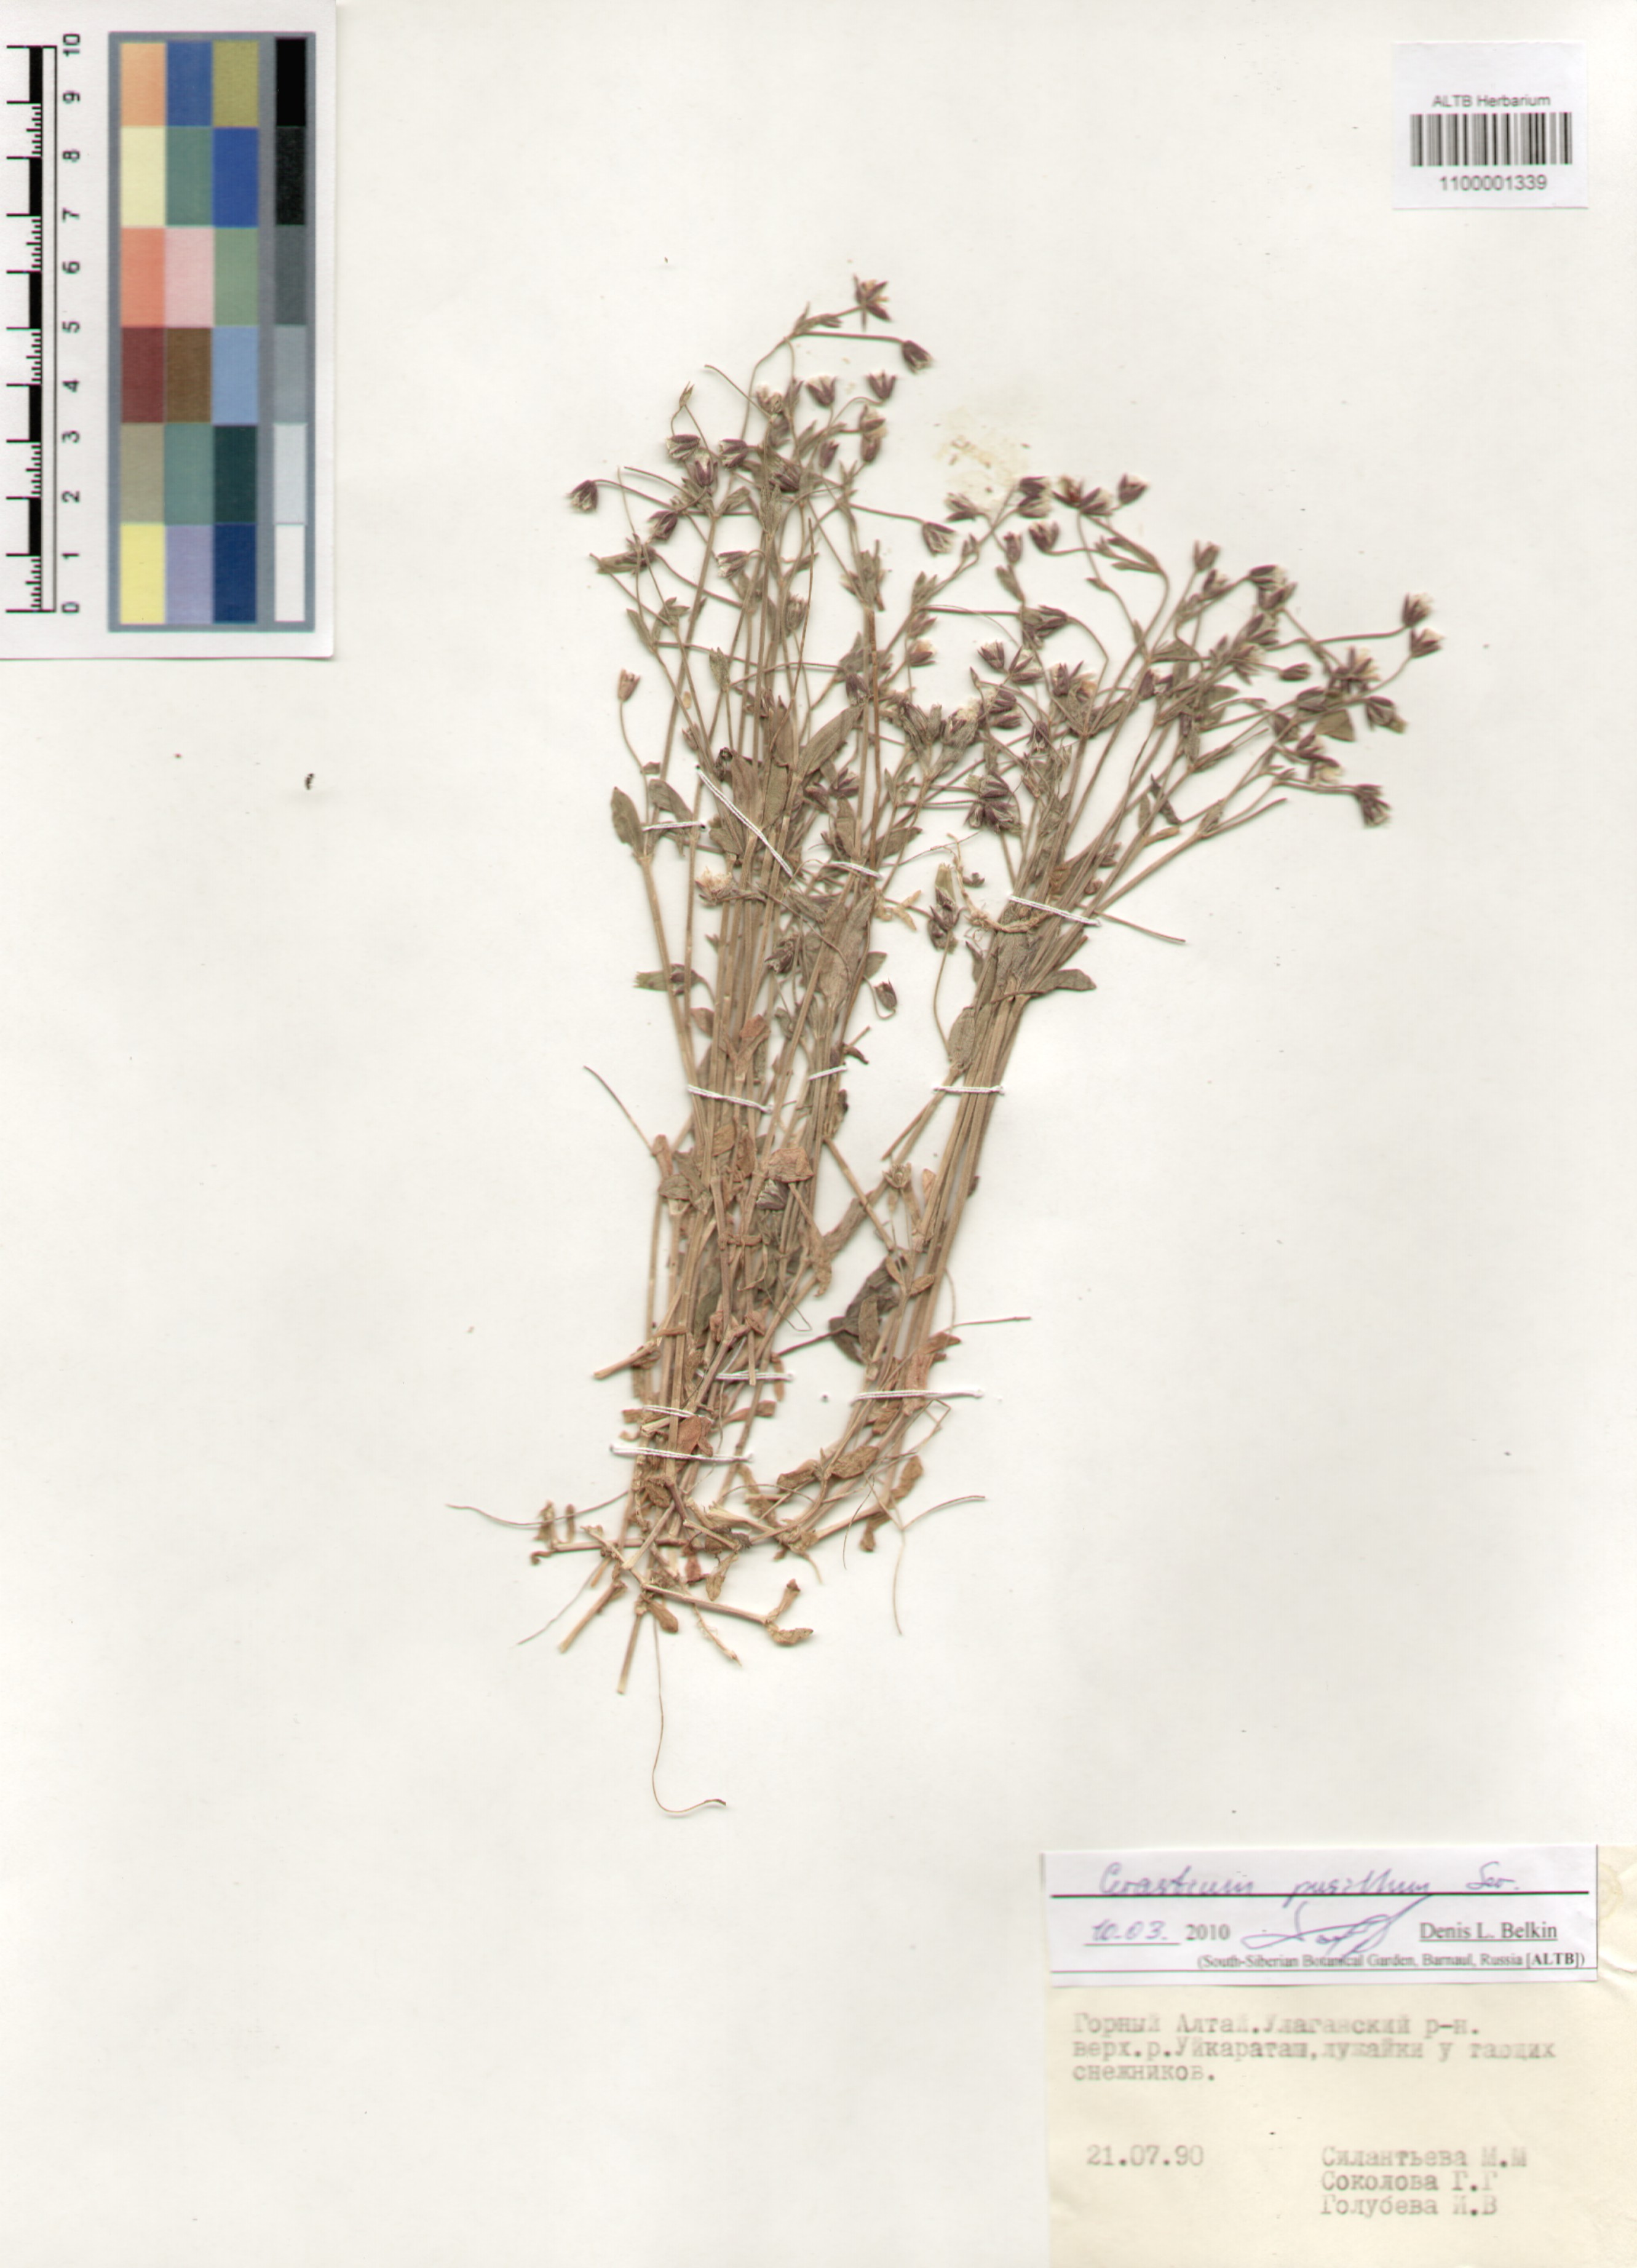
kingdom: Plantae
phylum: Tracheophyta
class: Magnoliopsida
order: Caryophyllales
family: Caryophyllaceae
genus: Cerastium
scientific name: Cerastium pusillum
